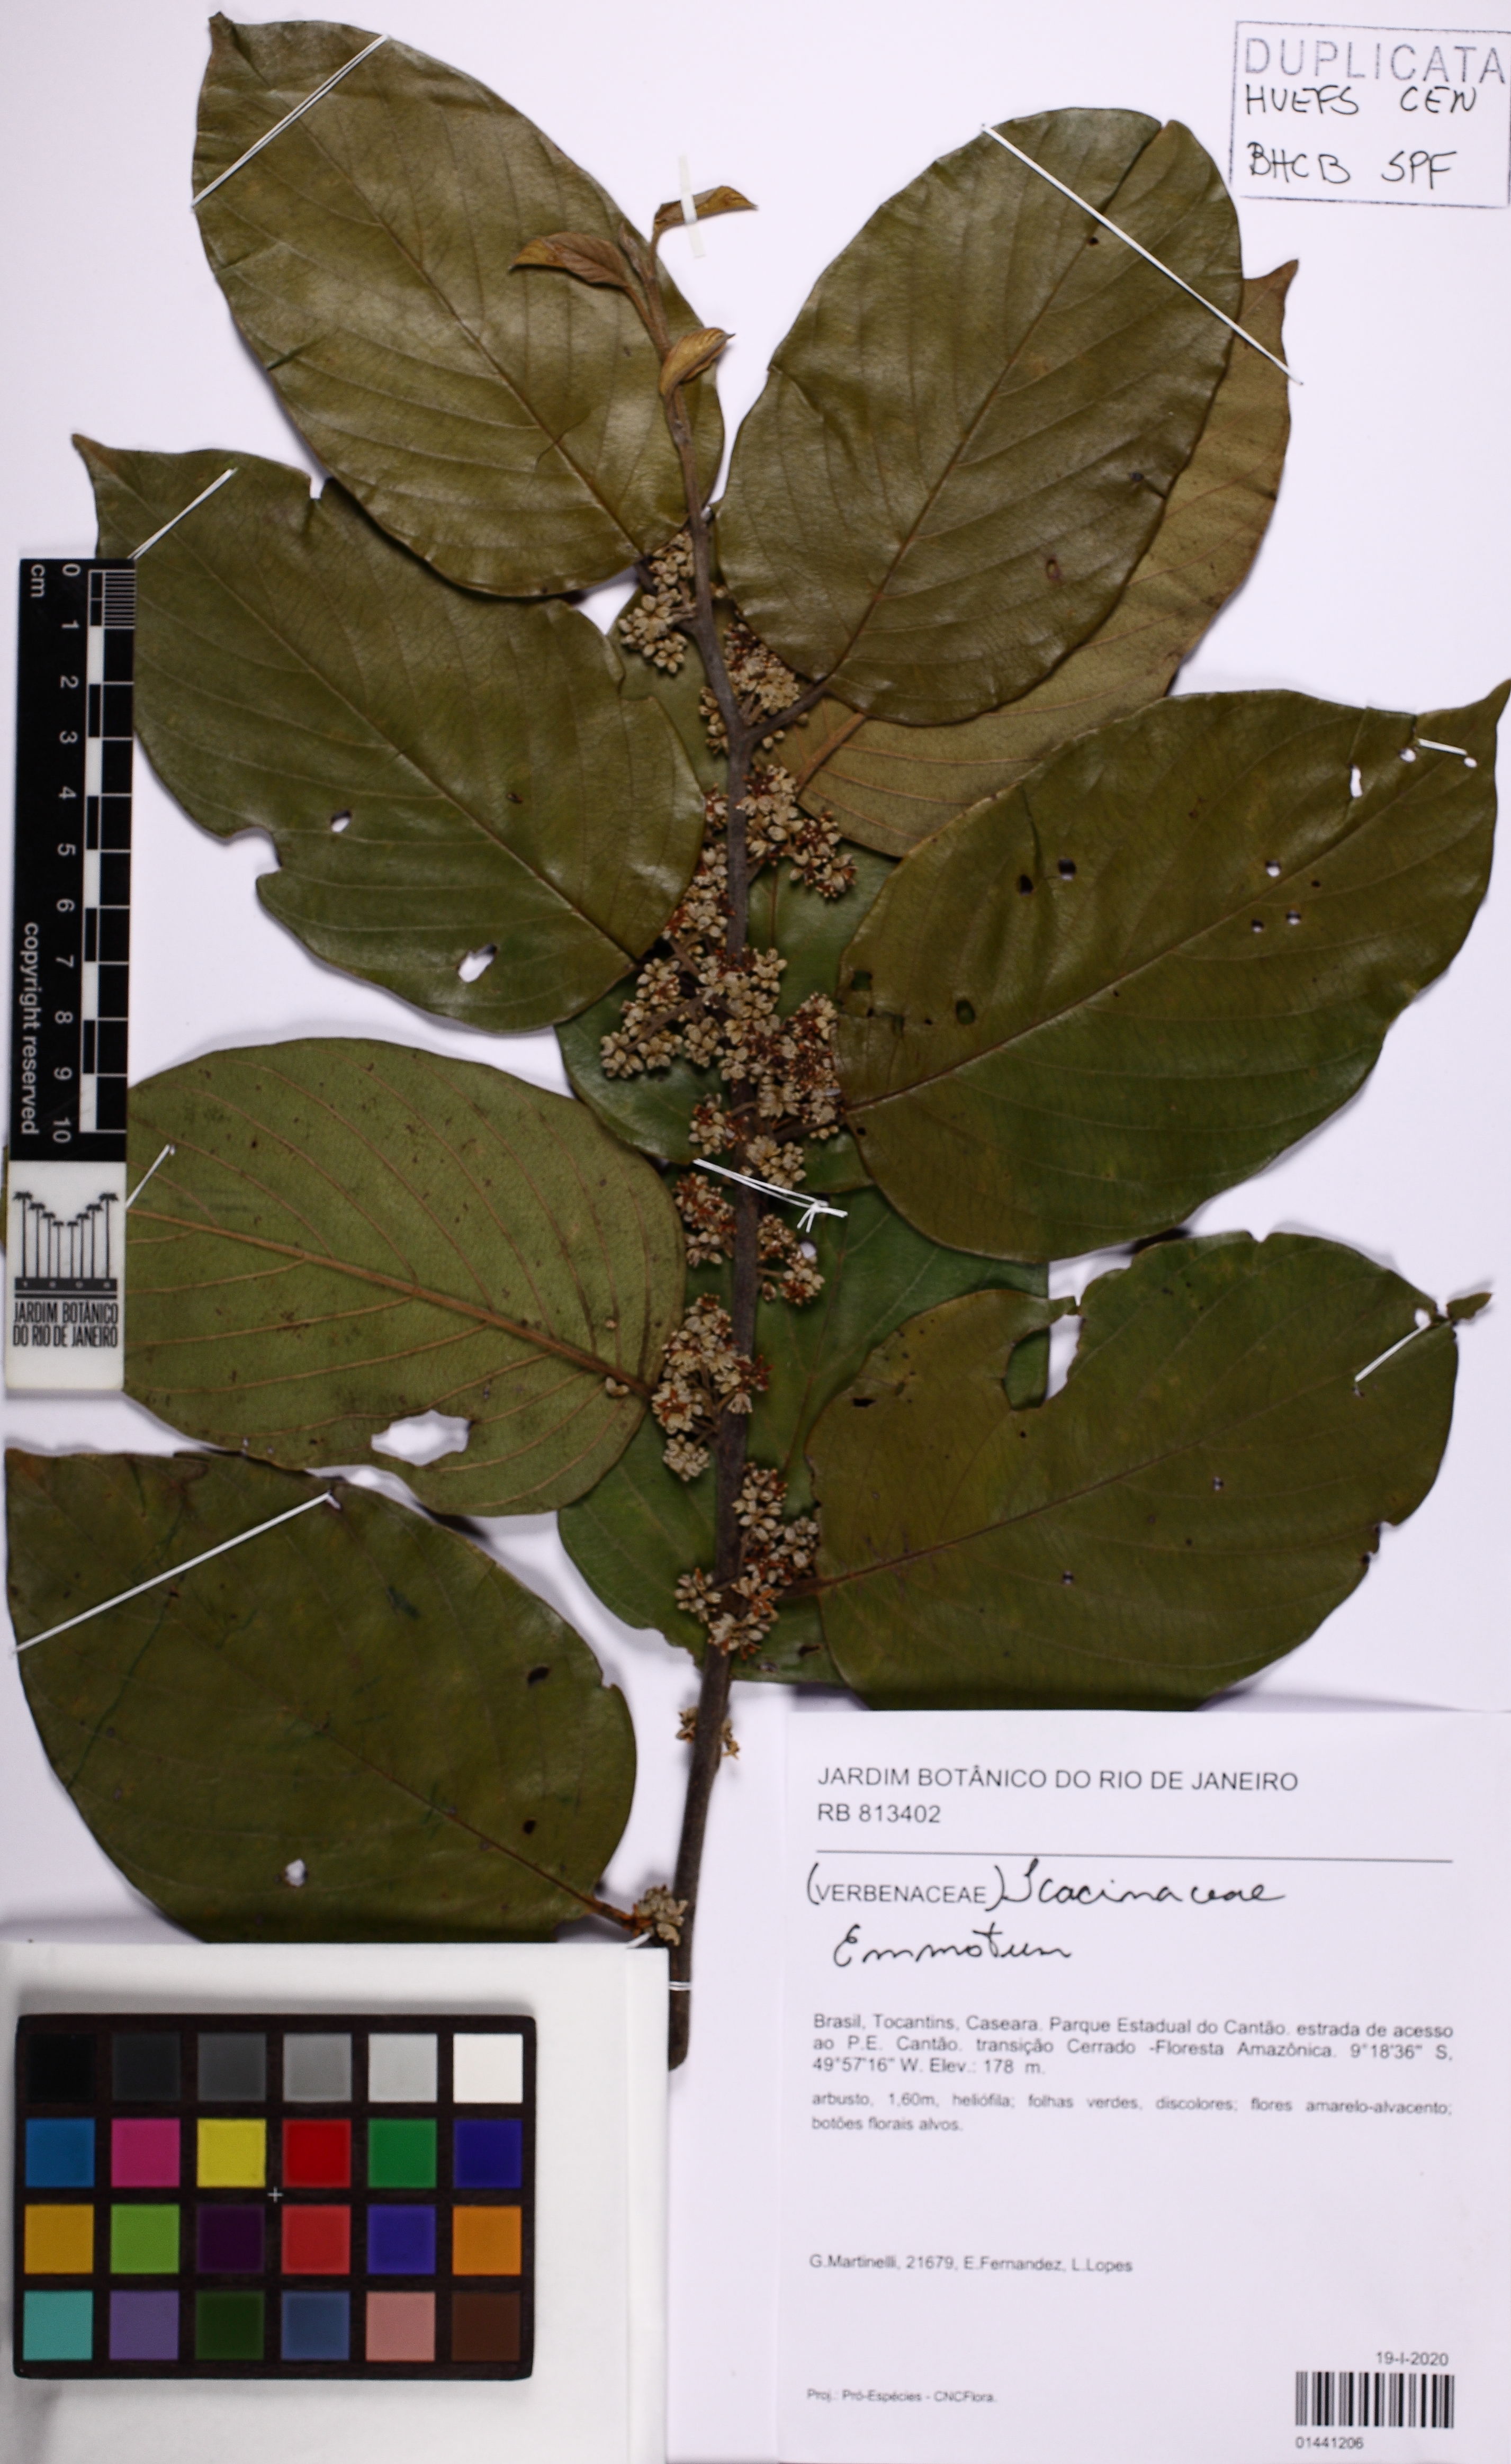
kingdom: Plantae
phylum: Tracheophyta
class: Magnoliopsida
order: Icacinales
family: Icacinaceae
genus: Emmotum
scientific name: Emmotum
